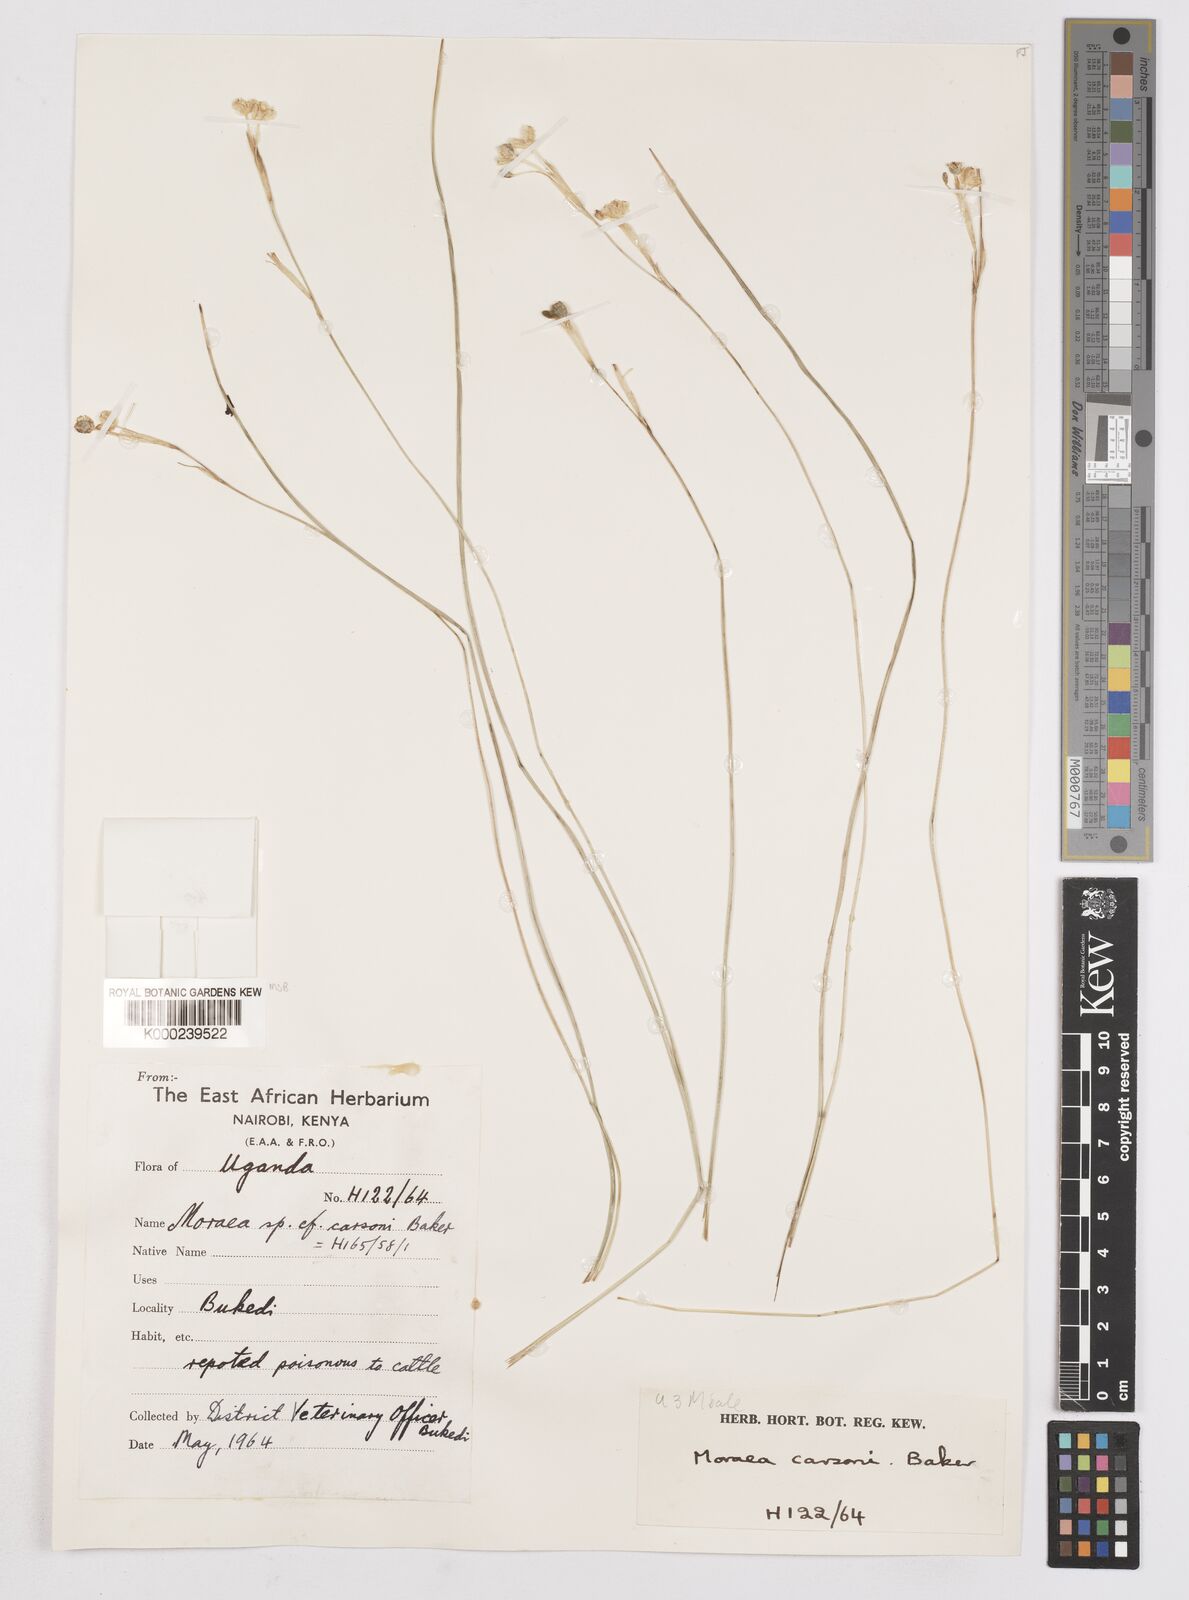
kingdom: Plantae
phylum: Tracheophyta
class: Liliopsida
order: Asparagales
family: Iridaceae
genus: Moraea
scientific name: Moraea
